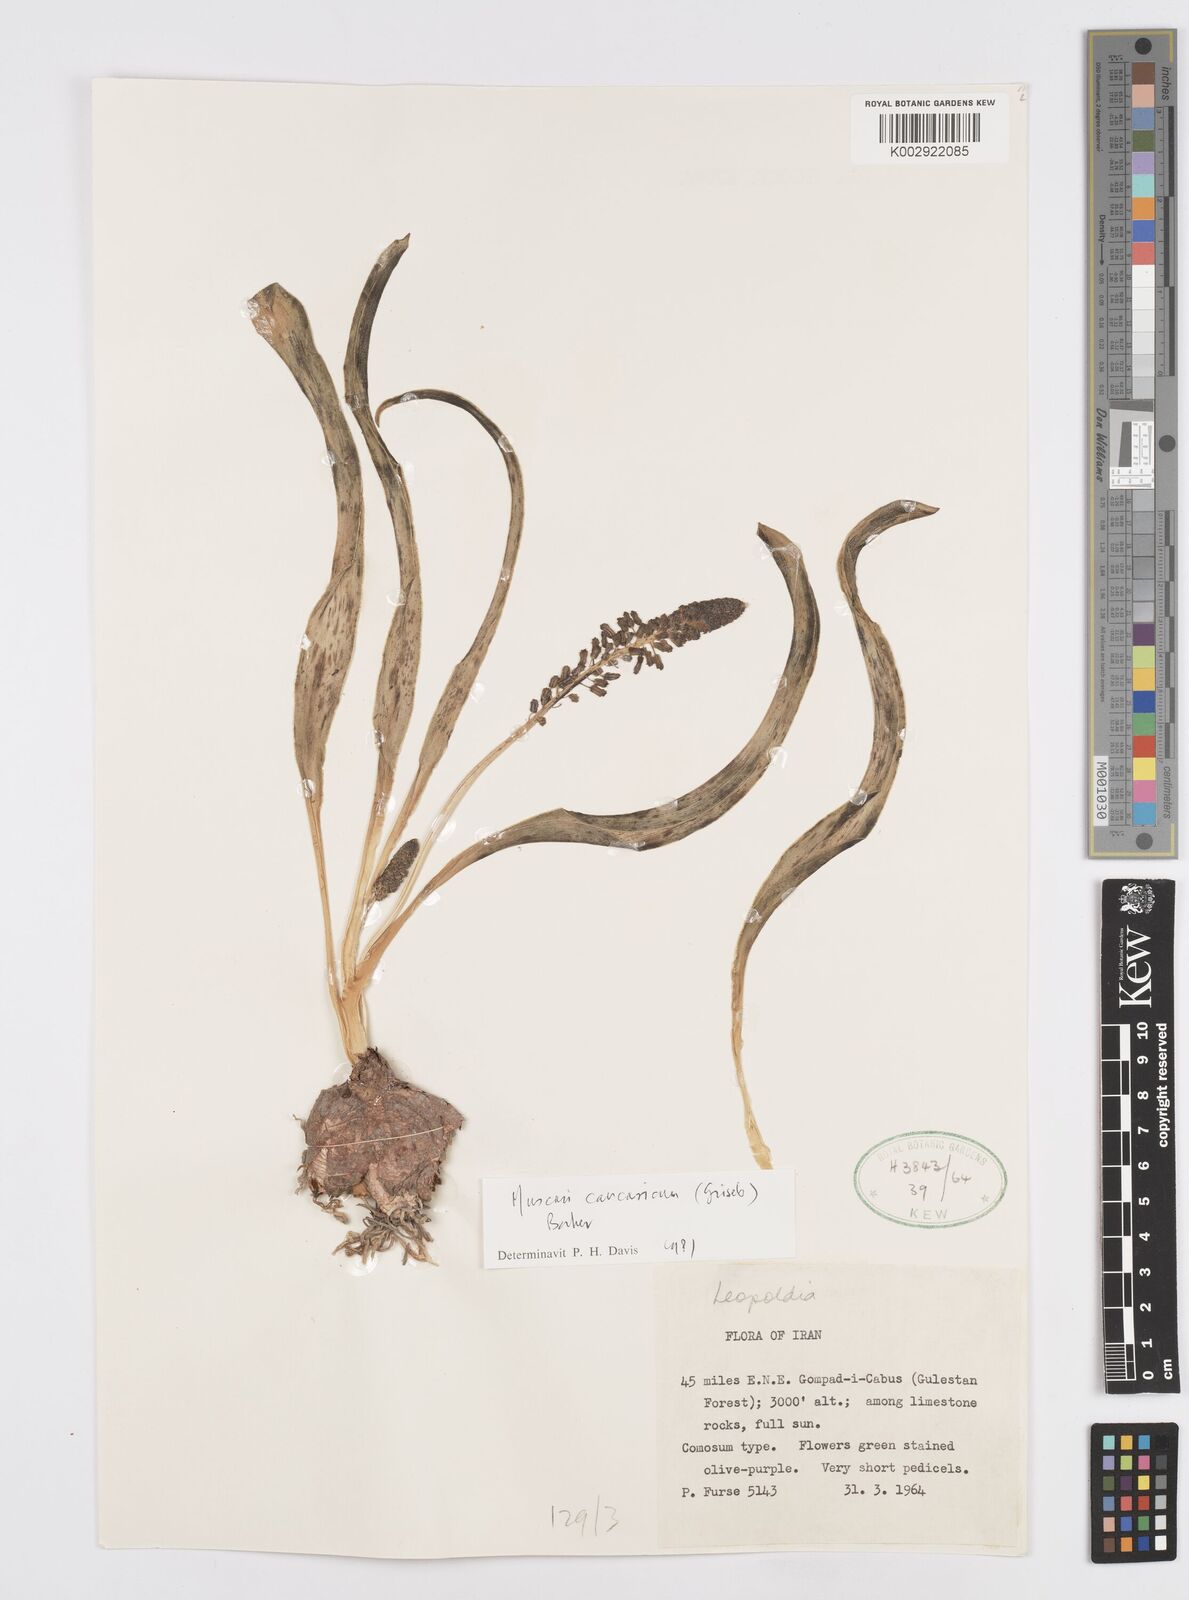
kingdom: Plantae
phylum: Tracheophyta
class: Liliopsida
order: Asparagales
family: Asparagaceae
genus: Muscari
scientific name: Muscari caucasicum
